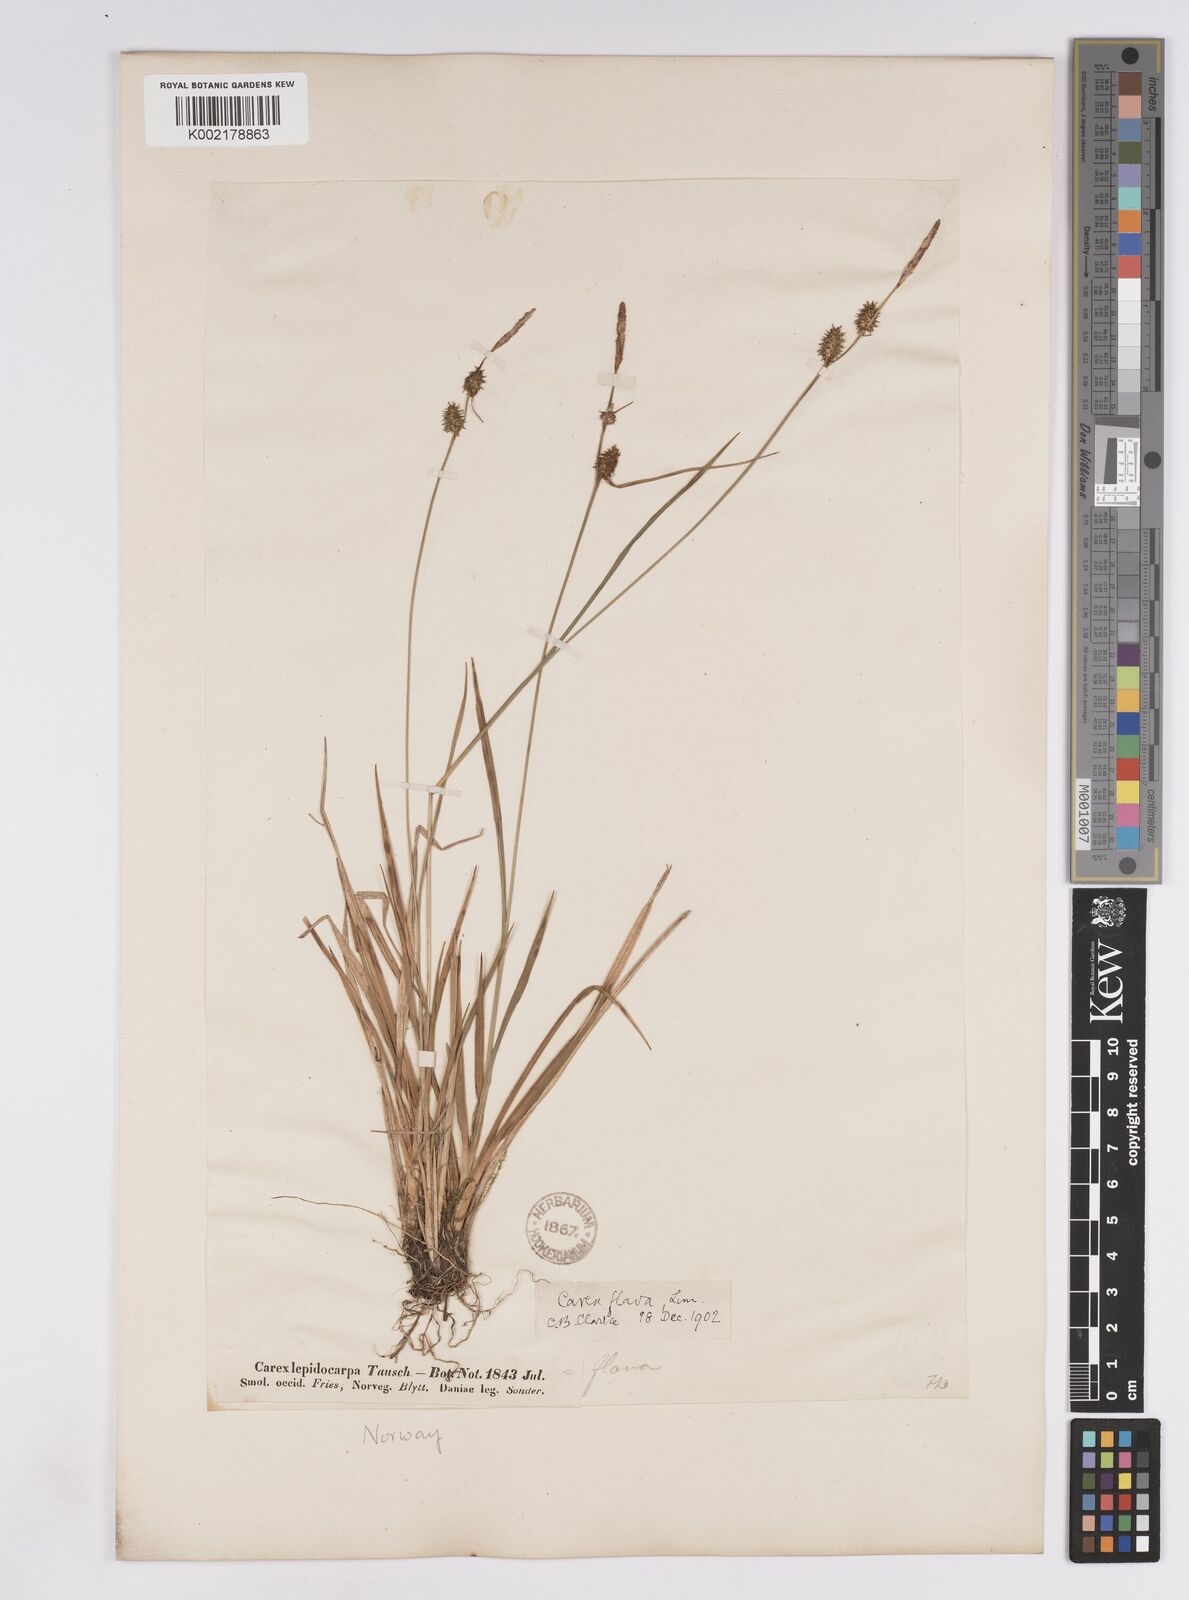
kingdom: Plantae
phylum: Tracheophyta
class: Liliopsida
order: Poales
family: Cyperaceae
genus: Carex
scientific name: Carex lepidocarpa
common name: Long-stalked yellow-sedge
